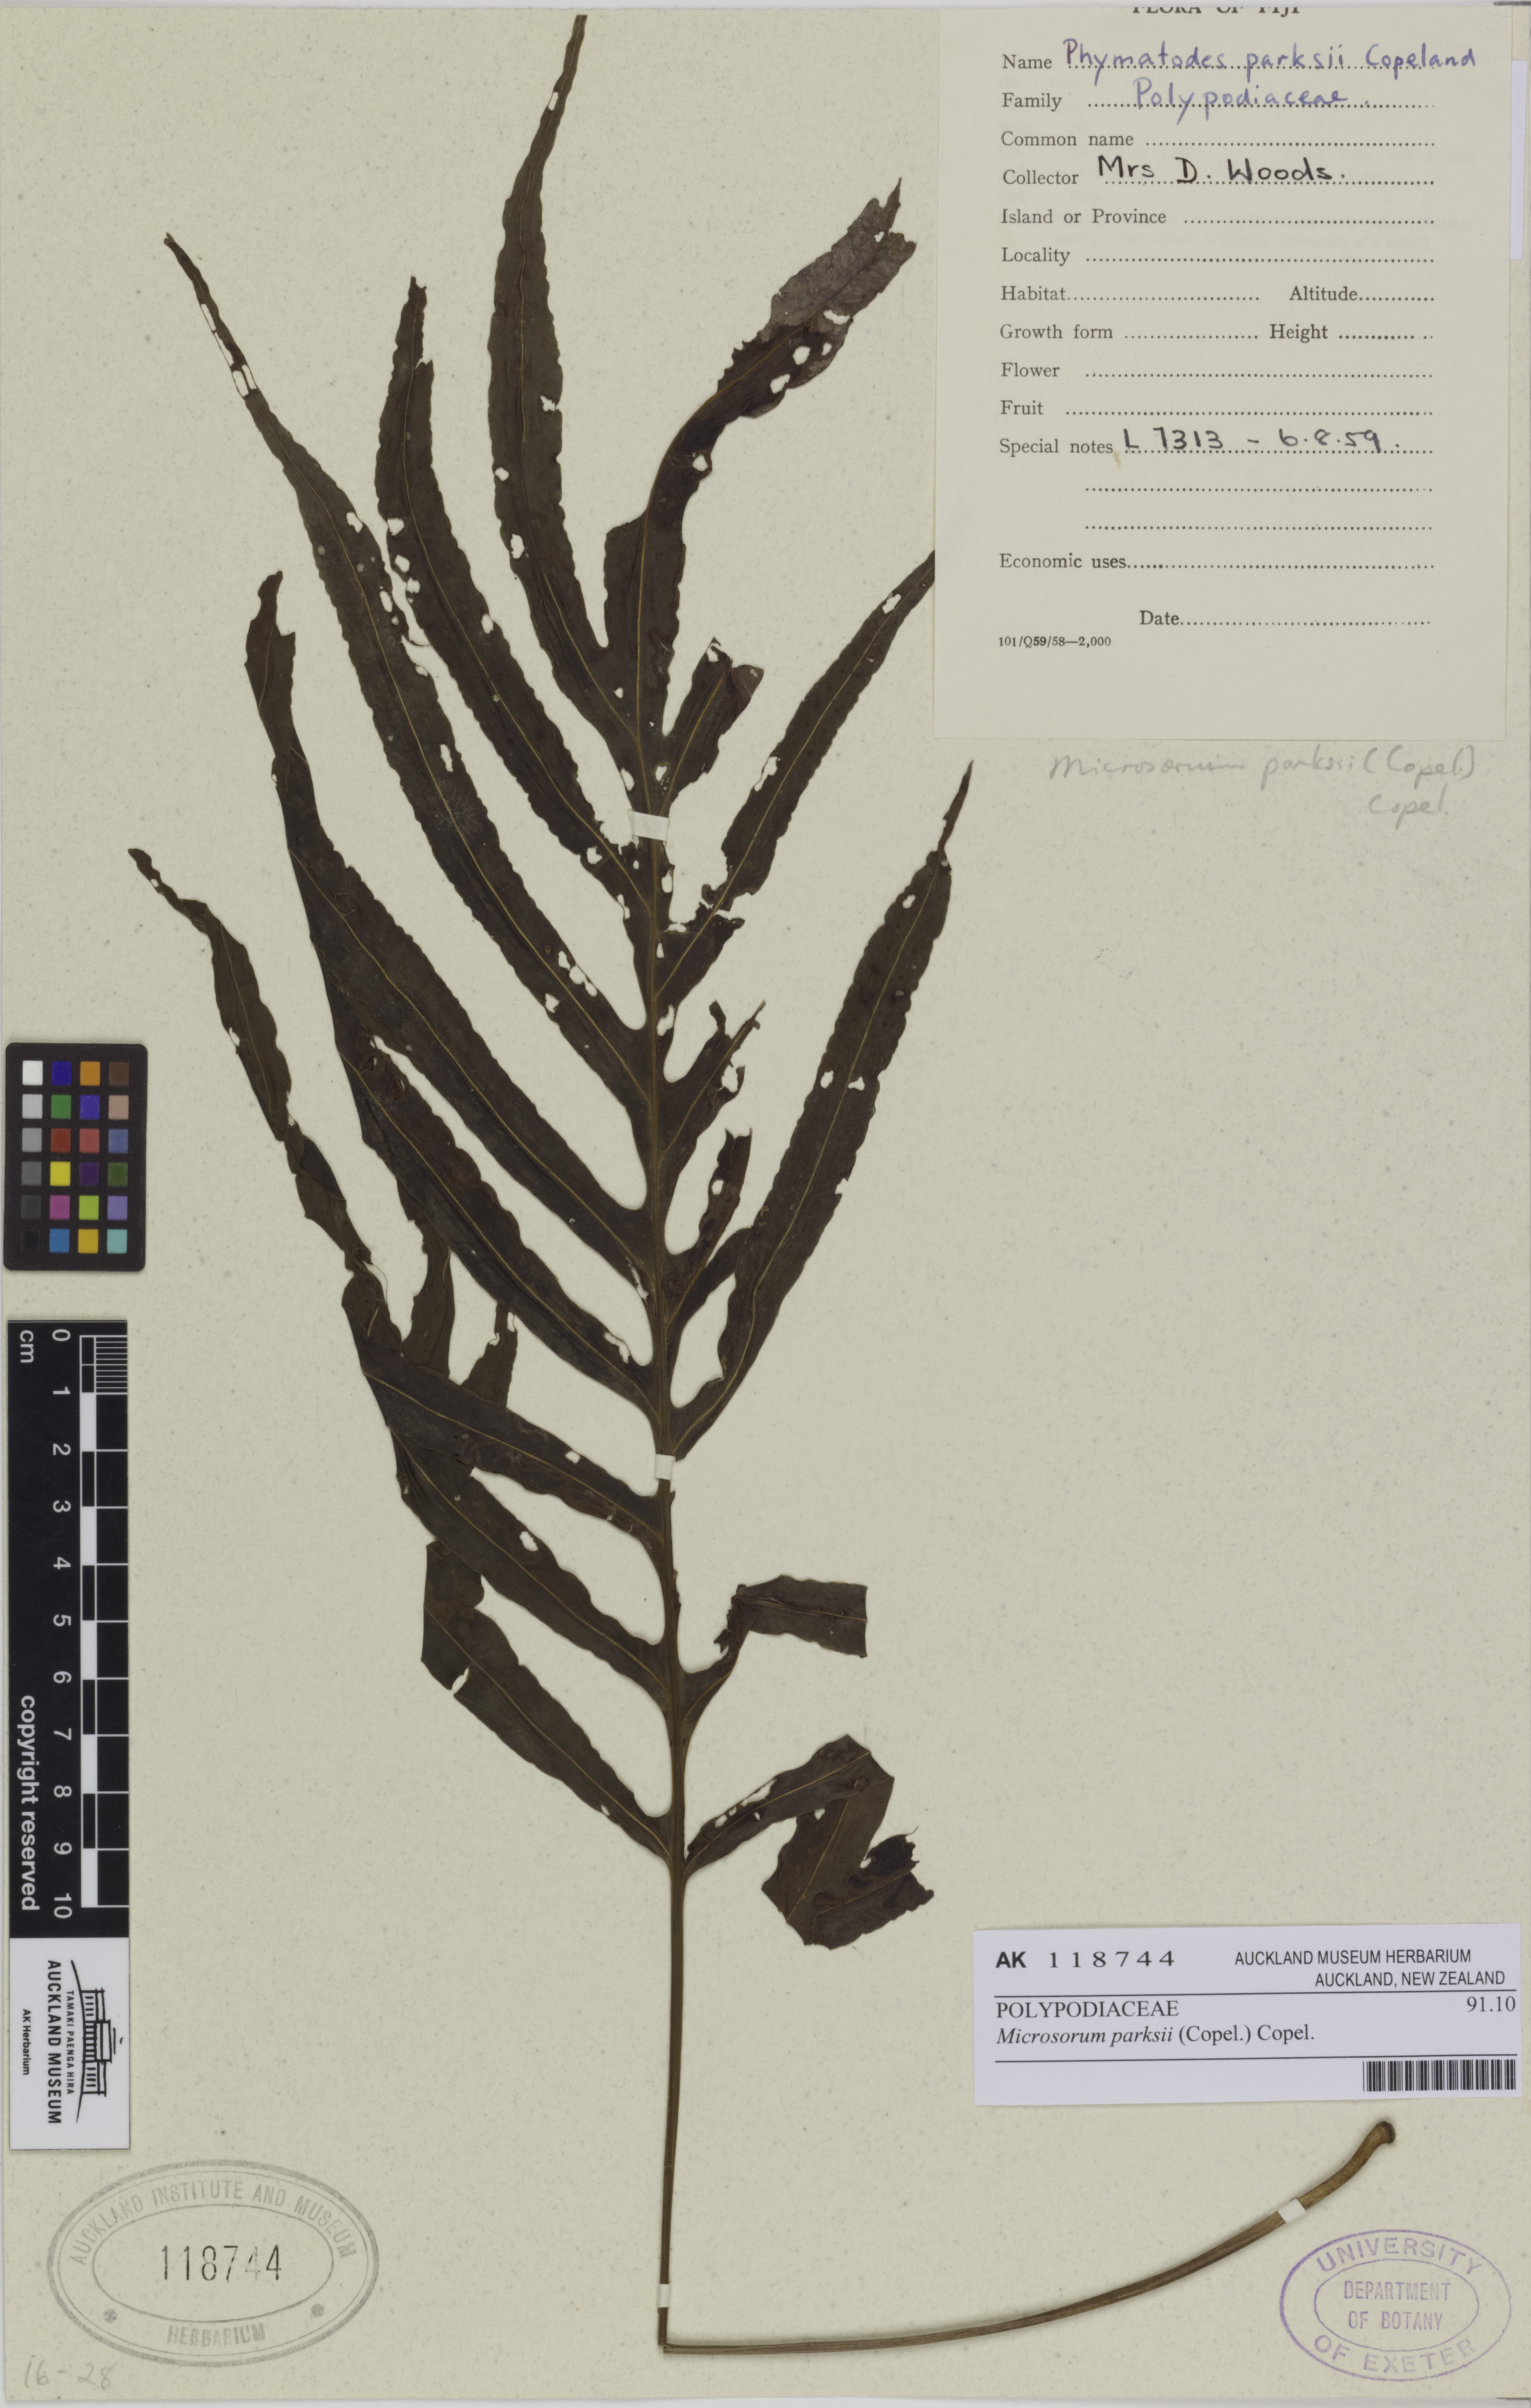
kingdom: Plantae
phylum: Tracheophyta
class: Polypodiopsida
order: Polypodiales
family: Polypodiaceae
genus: Microsorum
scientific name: Microsorum powellii
